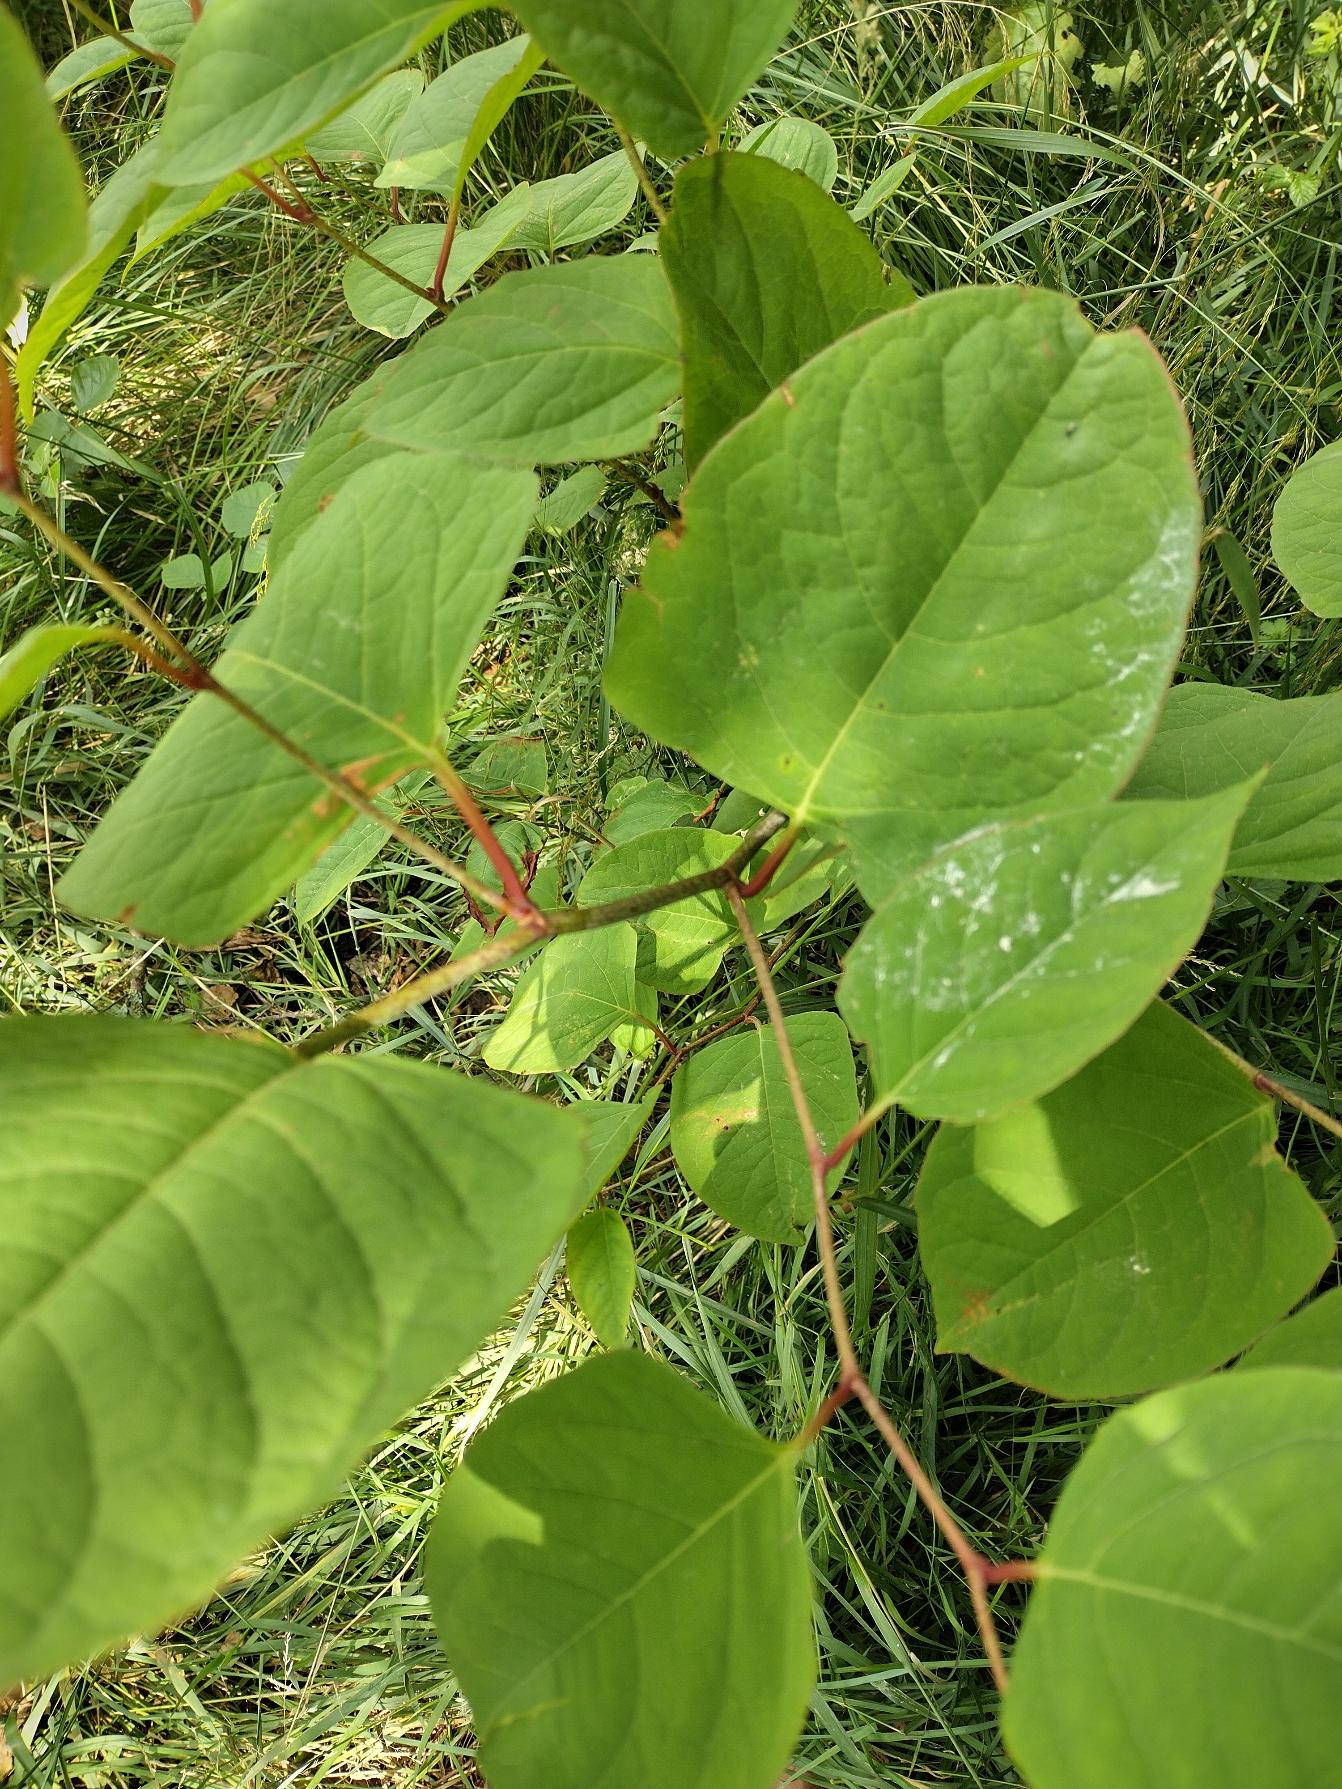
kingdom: Plantae
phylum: Tracheophyta
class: Magnoliopsida
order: Caryophyllales
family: Polygonaceae
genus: Reynoutria
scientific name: Reynoutria japonica
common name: Japan-pileurt
